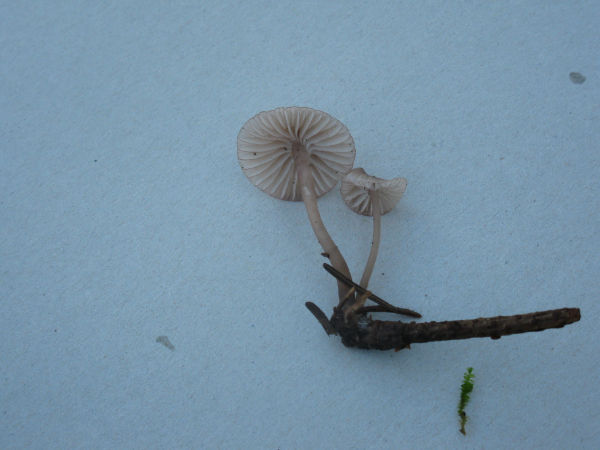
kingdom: Fungi
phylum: Basidiomycota
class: Agaricomycetes
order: Agaricales
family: Mycenaceae
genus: Mycena
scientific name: Mycena rubromarginata
